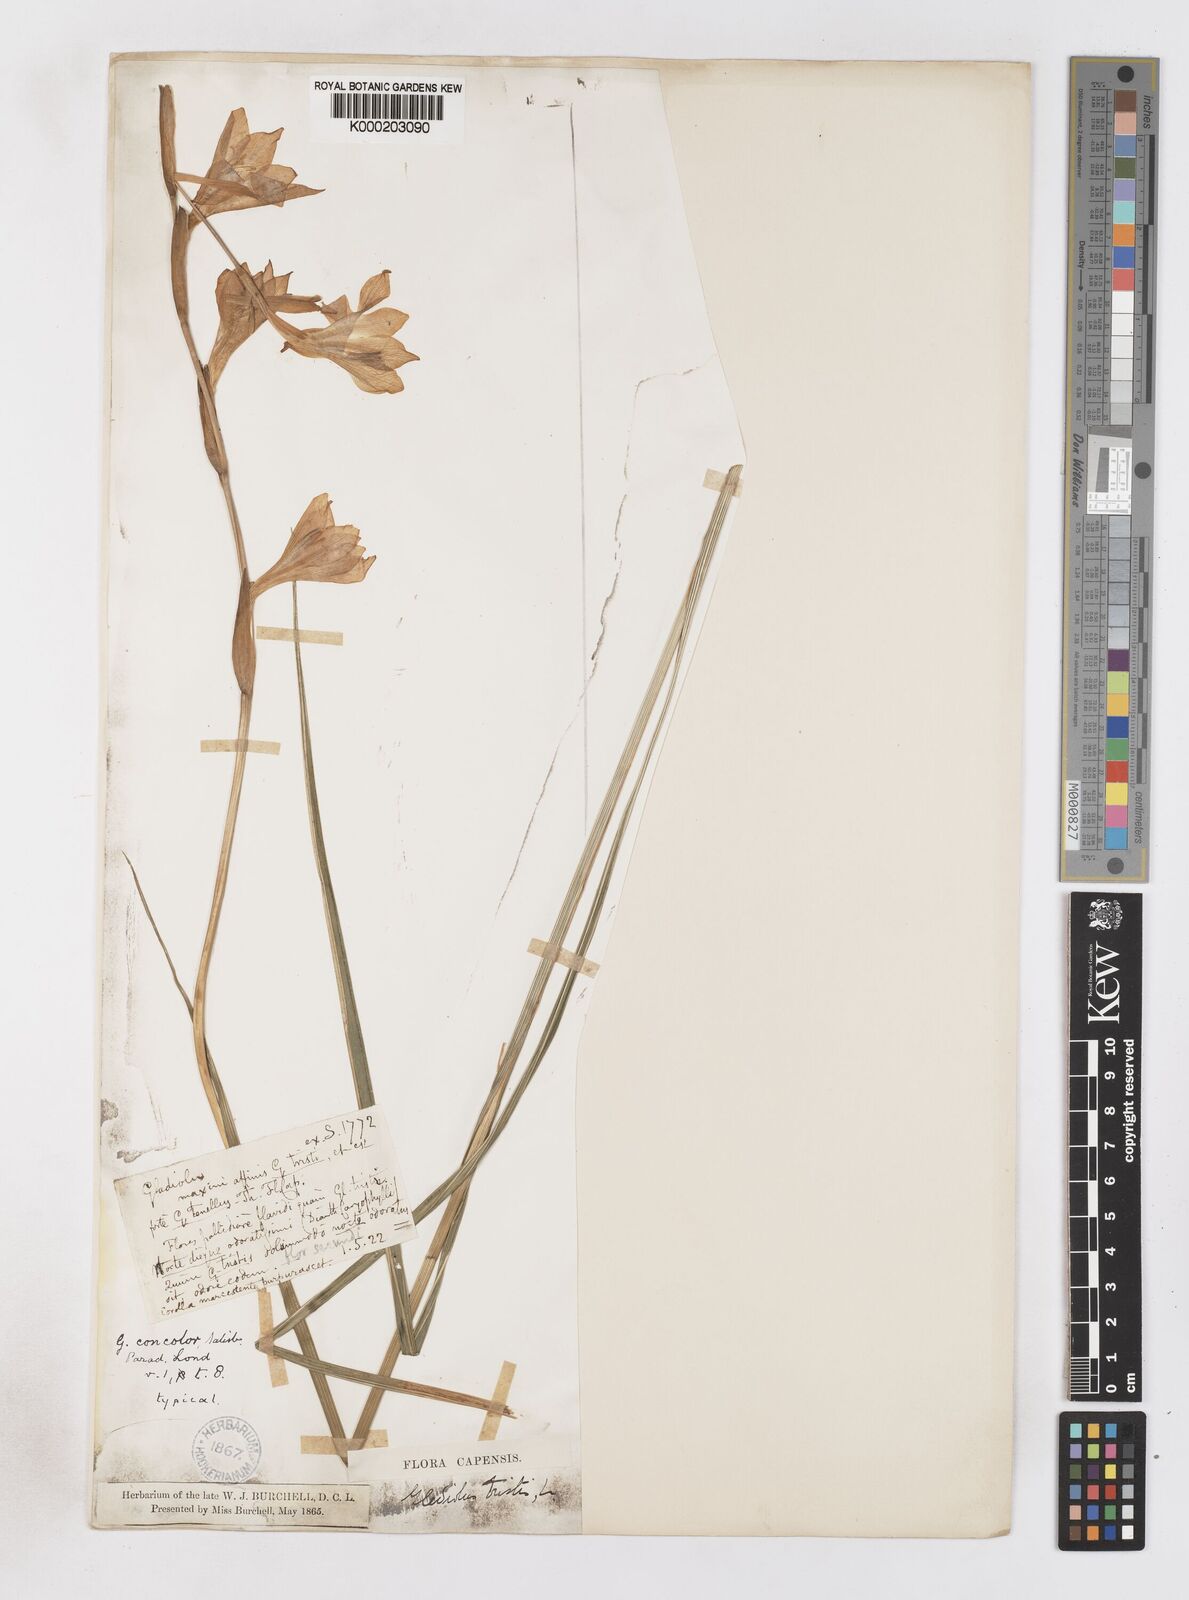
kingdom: Plantae
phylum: Tracheophyta
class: Liliopsida
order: Asparagales
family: Iridaceae
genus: Gladiolus
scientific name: Gladiolus tristis
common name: Ever-flowering gladiolus
